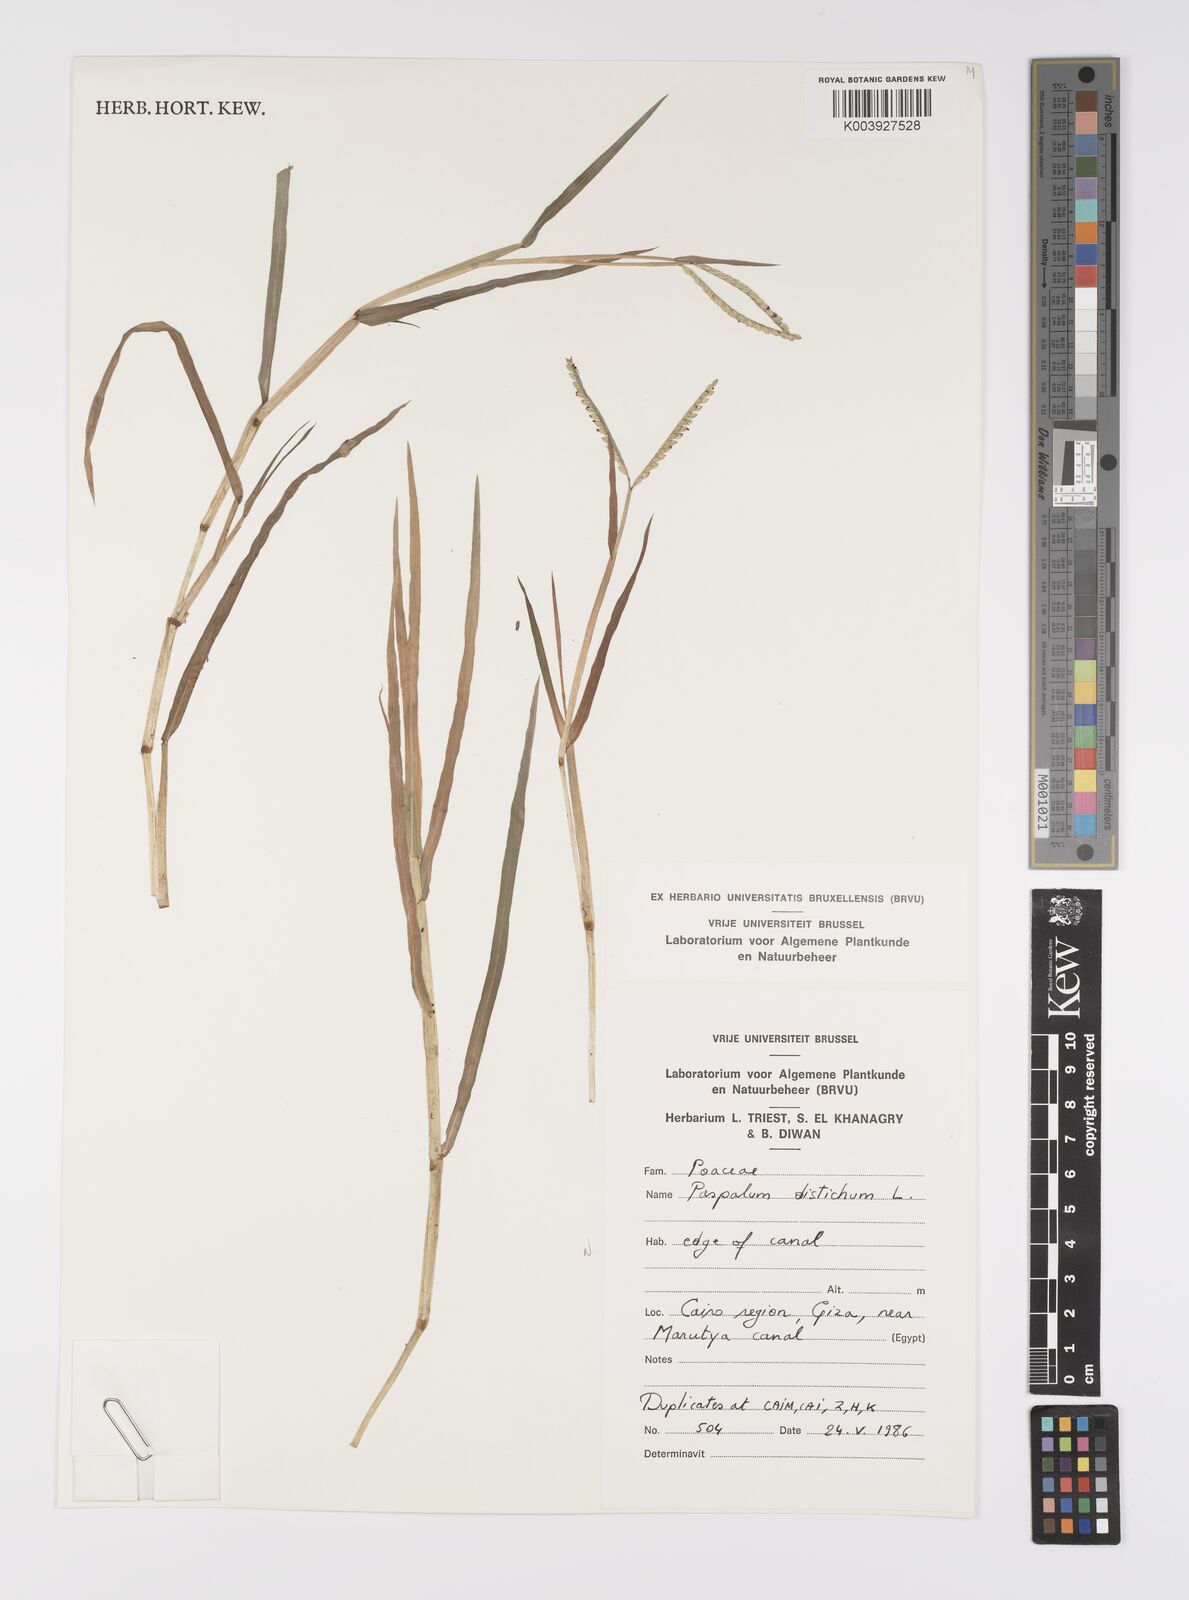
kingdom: Plantae
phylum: Tracheophyta
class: Liliopsida
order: Poales
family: Poaceae
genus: Paspalum
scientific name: Paspalum distichum
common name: Knotgrass
